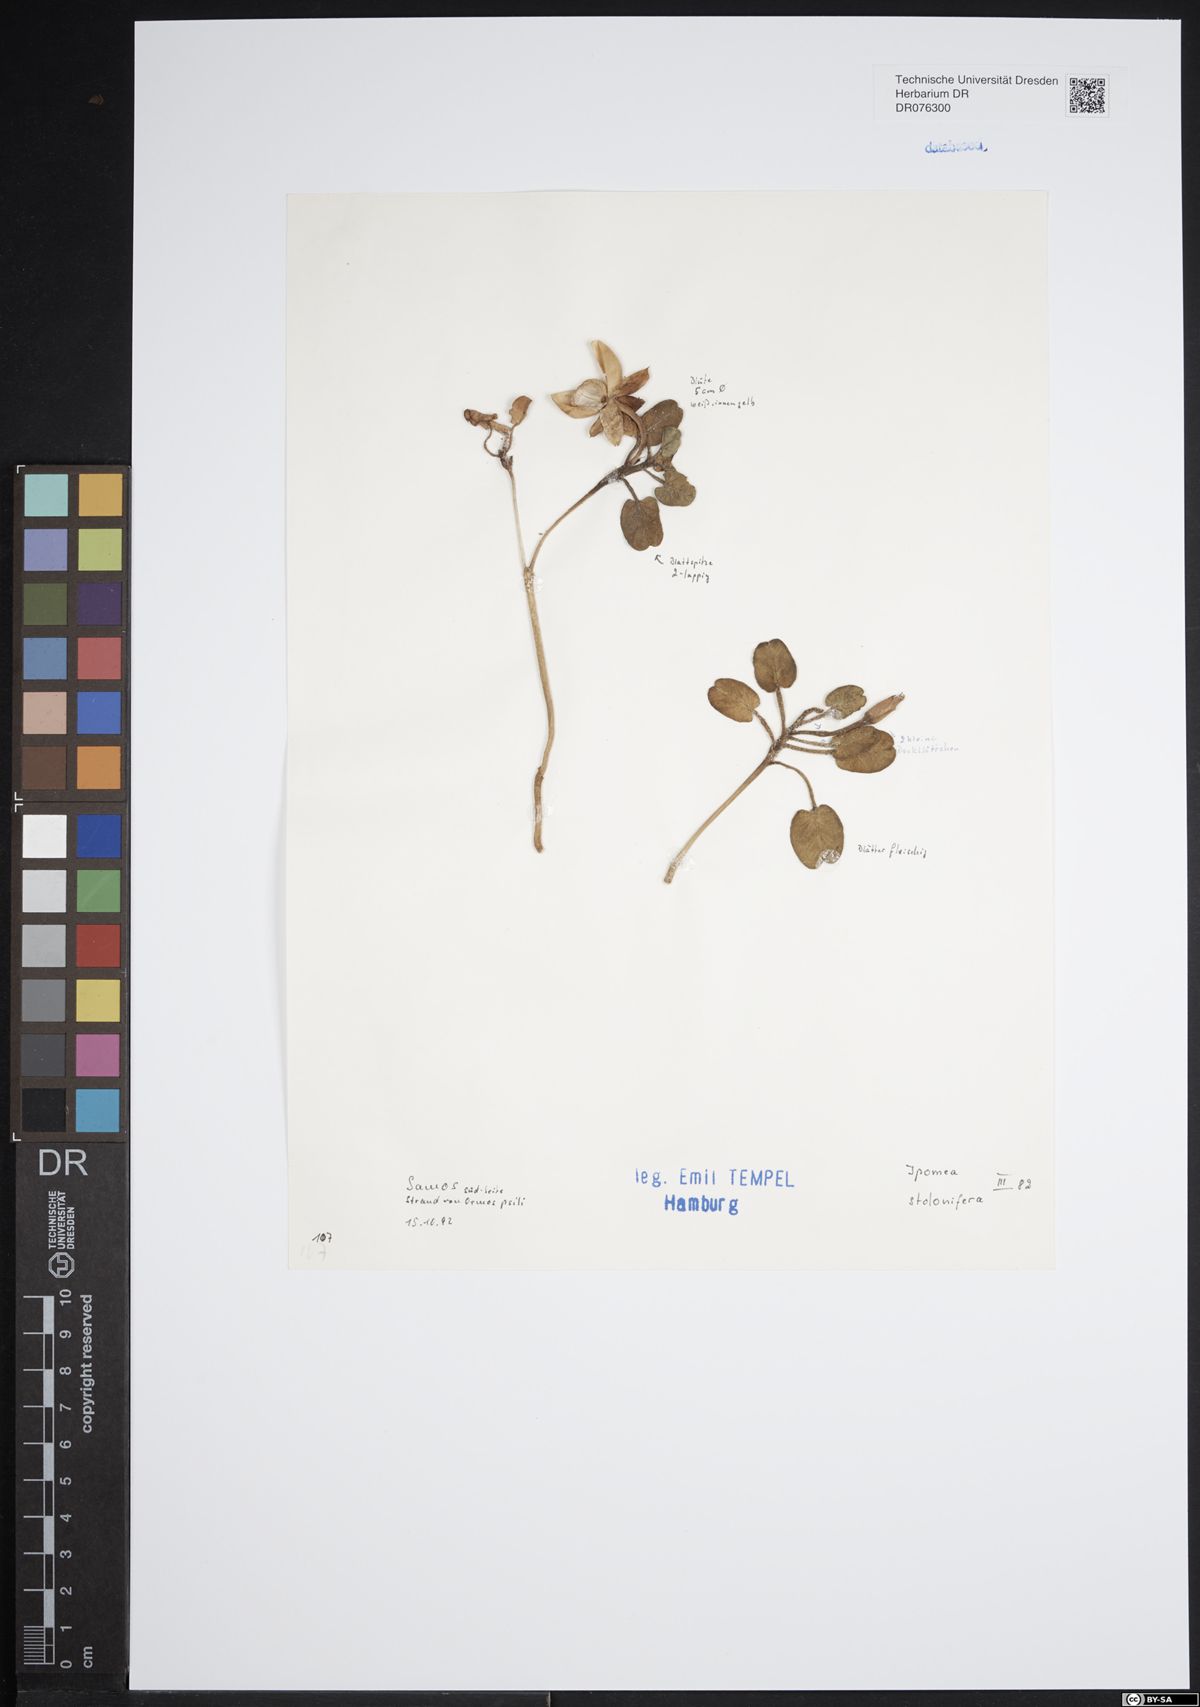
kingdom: Plantae
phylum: Tracheophyta
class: Magnoliopsida
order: Solanales
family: Convolvulaceae
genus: Ipomoea
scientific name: Ipomoea imperati
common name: Fiddle-leaf morning-glory
